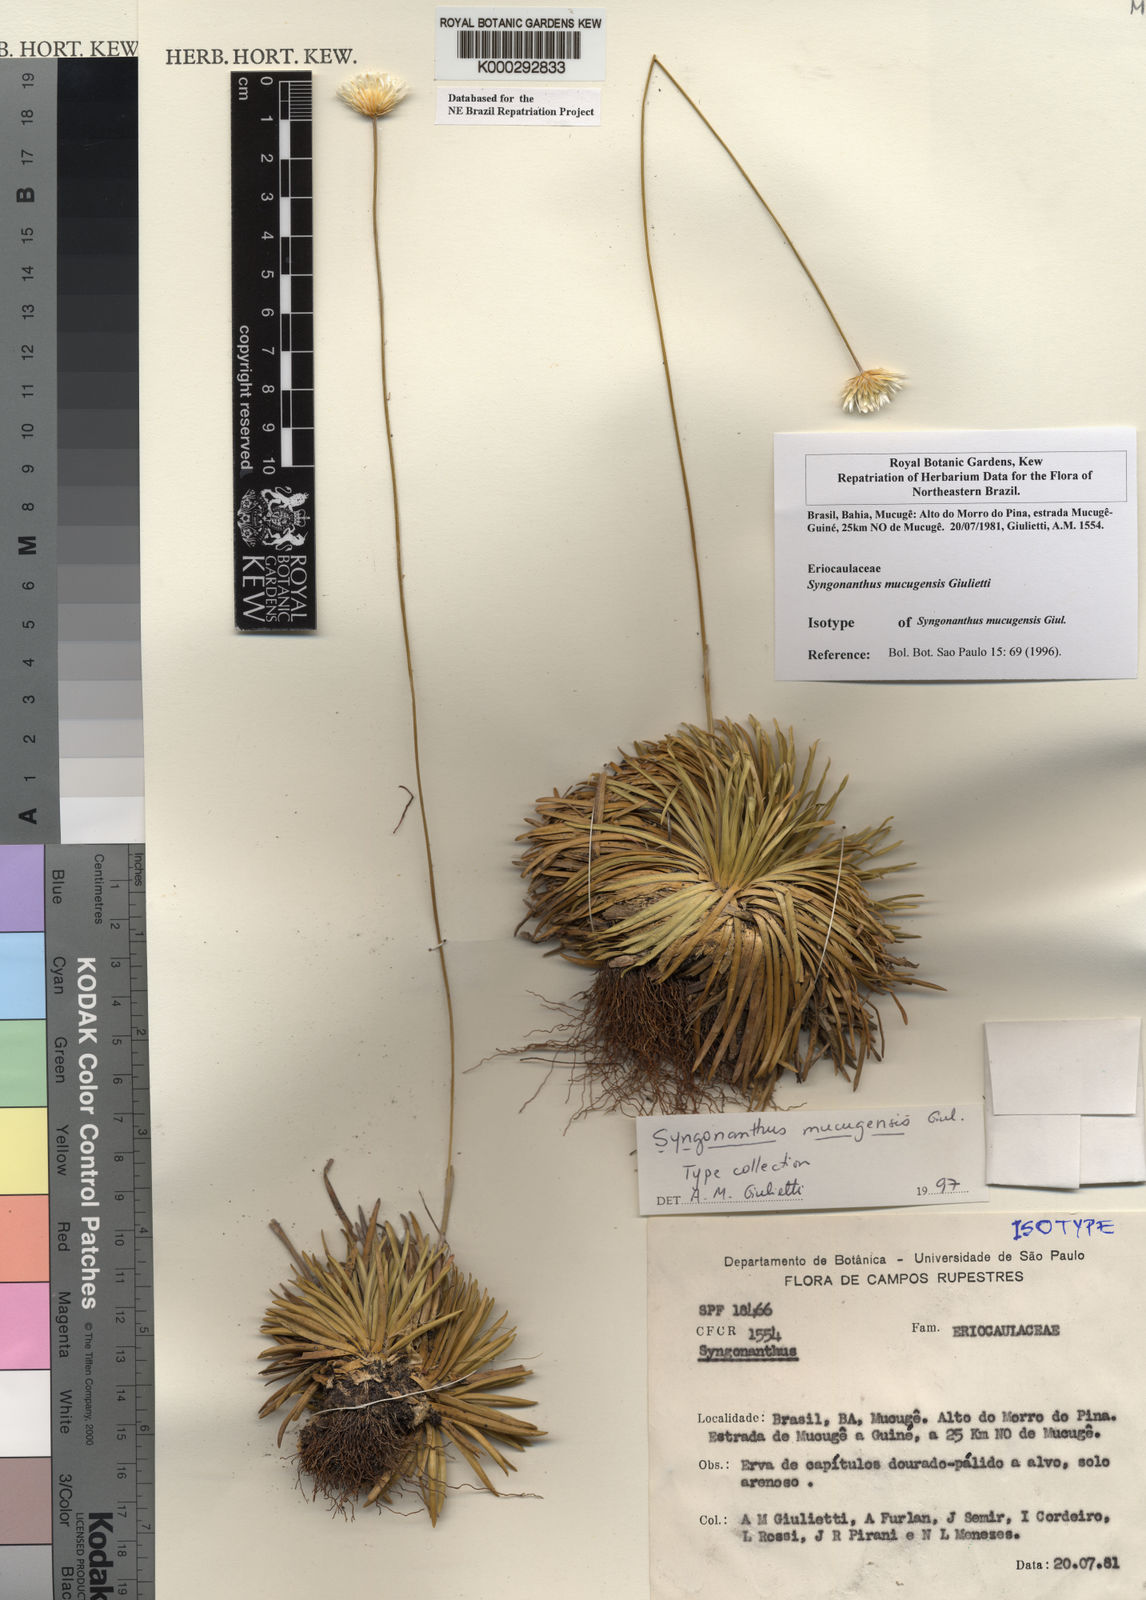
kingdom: Plantae
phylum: Tracheophyta
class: Liliopsida
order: Poales
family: Eriocaulaceae
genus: Comanthera
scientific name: Comanthera mucugensis
